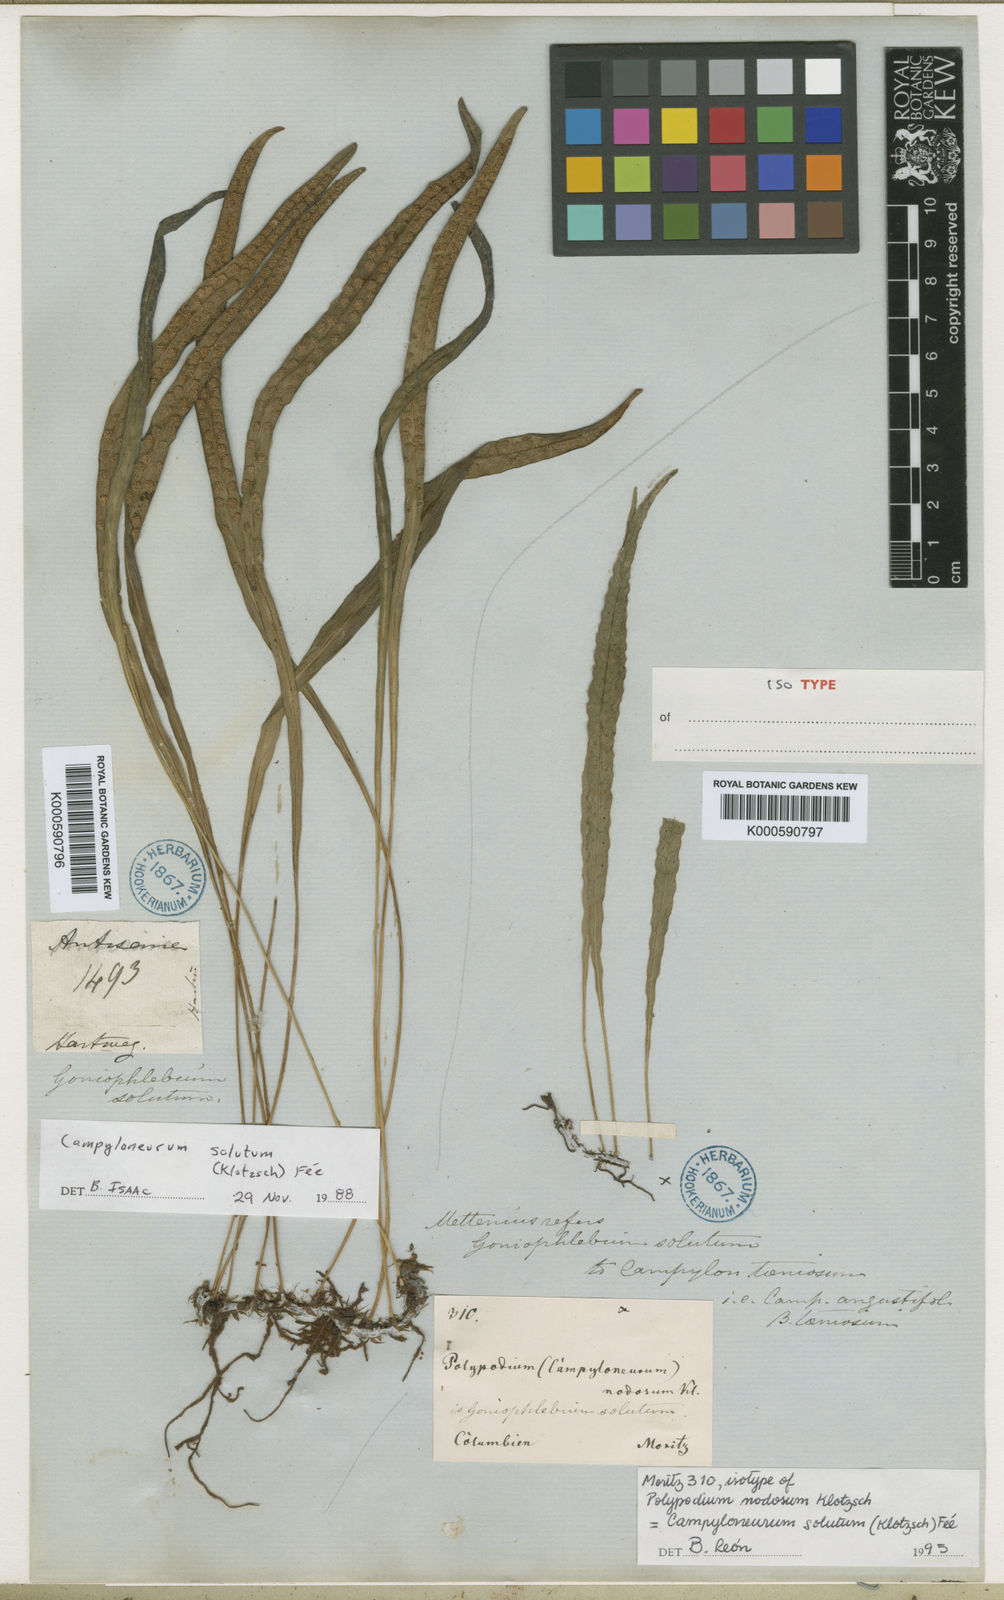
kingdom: Plantae
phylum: Tracheophyta
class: Polypodiopsida
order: Polypodiales
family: Polypodiaceae
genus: Campyloneurum
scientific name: Campyloneurum
